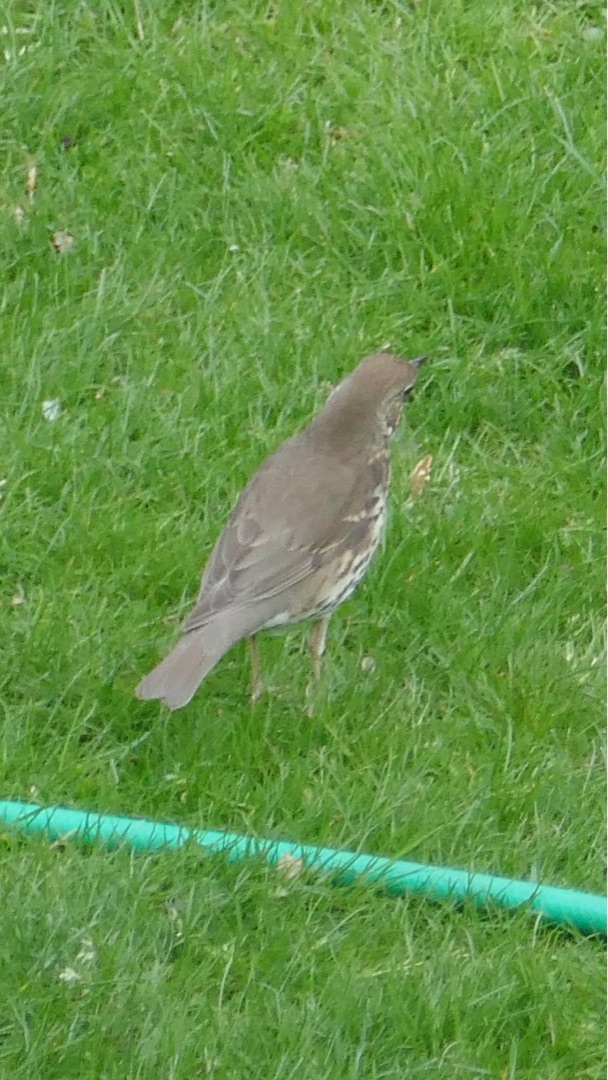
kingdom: Animalia
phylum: Chordata
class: Aves
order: Passeriformes
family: Turdidae
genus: Turdus
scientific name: Turdus philomelos
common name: Sangdrossel
